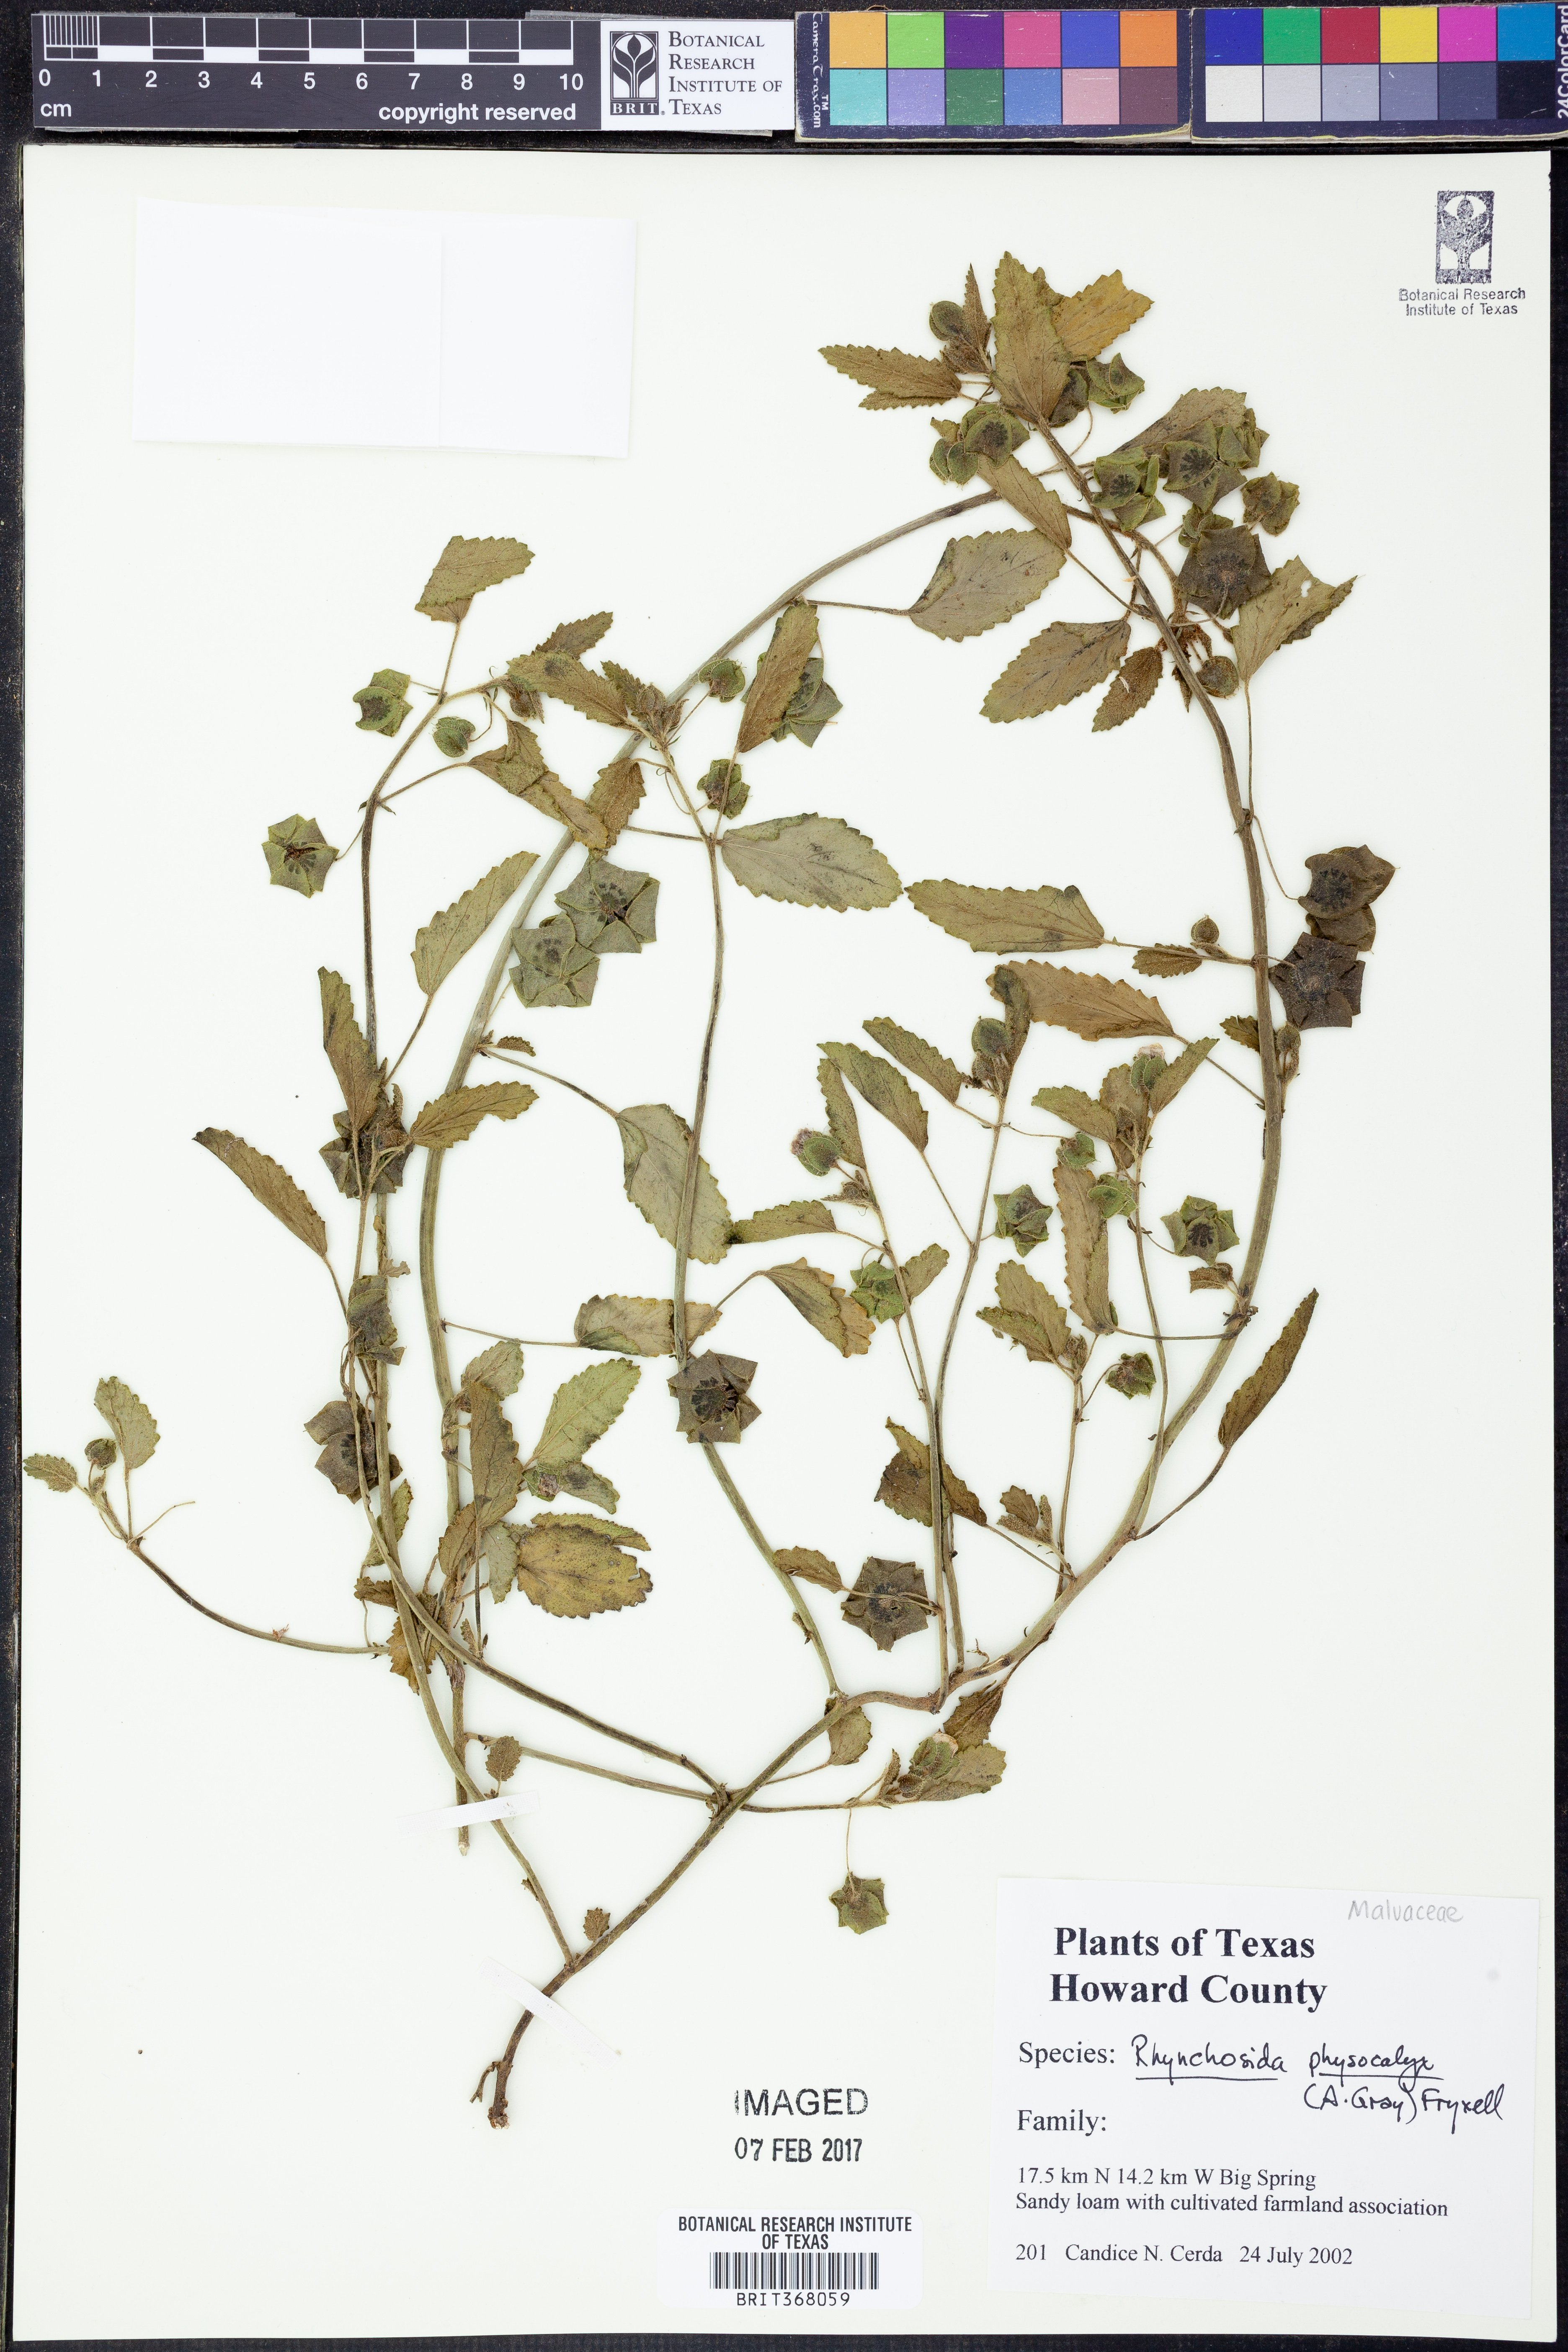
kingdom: Plantae
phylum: Tracheophyta
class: Magnoliopsida
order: Malvales
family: Malvaceae
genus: Rhynchosida
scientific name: Rhynchosida physocalyx
